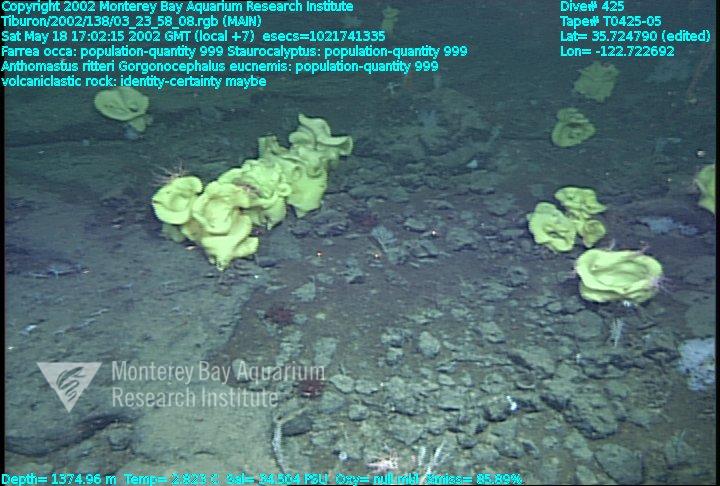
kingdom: Animalia
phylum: Porifera
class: Hexactinellida
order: Sceptrulophora
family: Farreidae
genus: Farrea
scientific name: Farrea occa
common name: Reversed glass sponge
